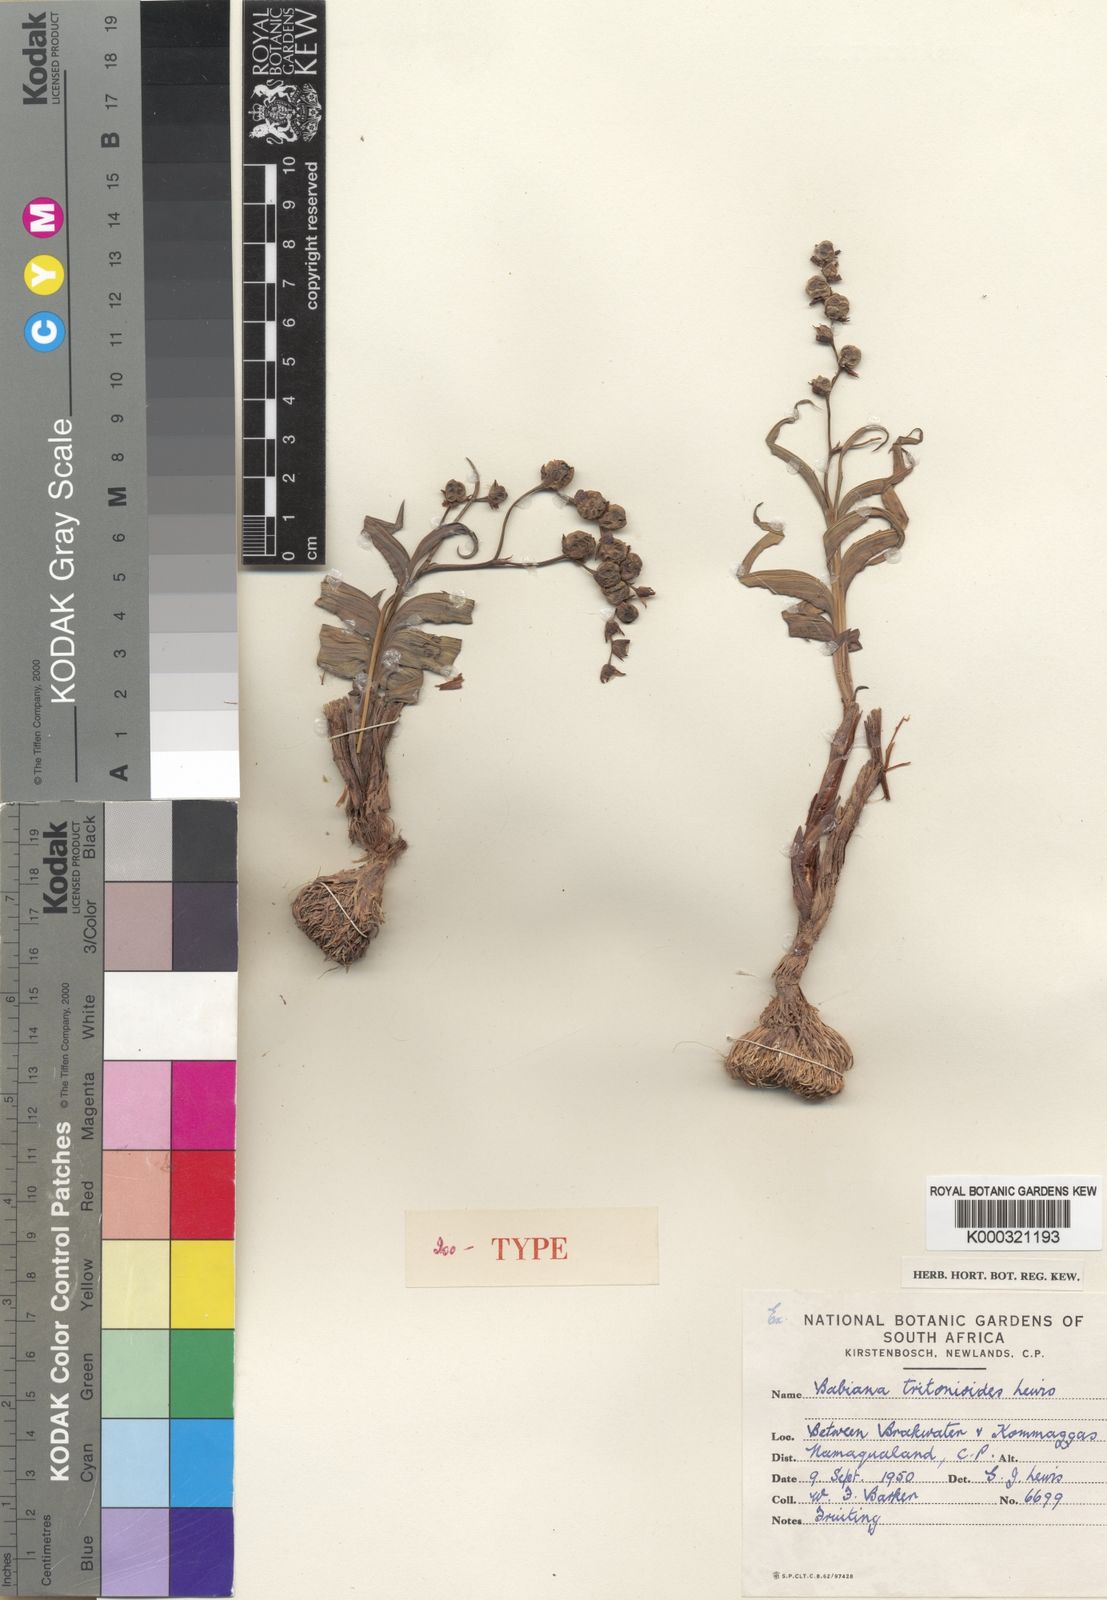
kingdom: Plantae
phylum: Tracheophyta
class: Liliopsida
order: Asparagales
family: Iridaceae
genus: Babiana
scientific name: Babiana tritonioides
